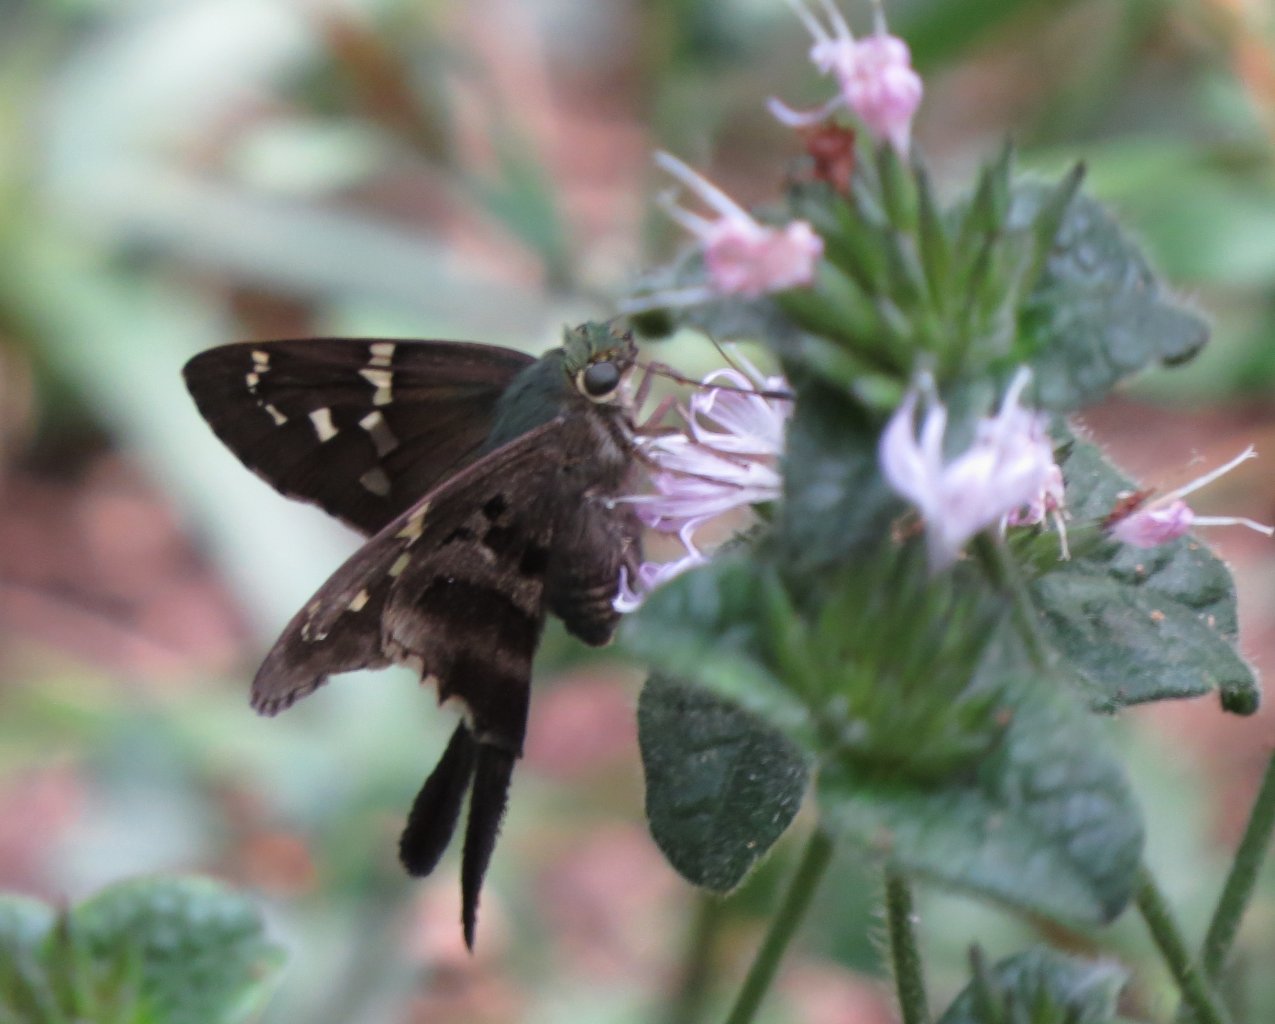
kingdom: Animalia
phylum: Arthropoda
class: Insecta
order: Lepidoptera
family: Hesperiidae
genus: Urbanus
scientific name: Urbanus proteus
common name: Long-tailed Skipper
